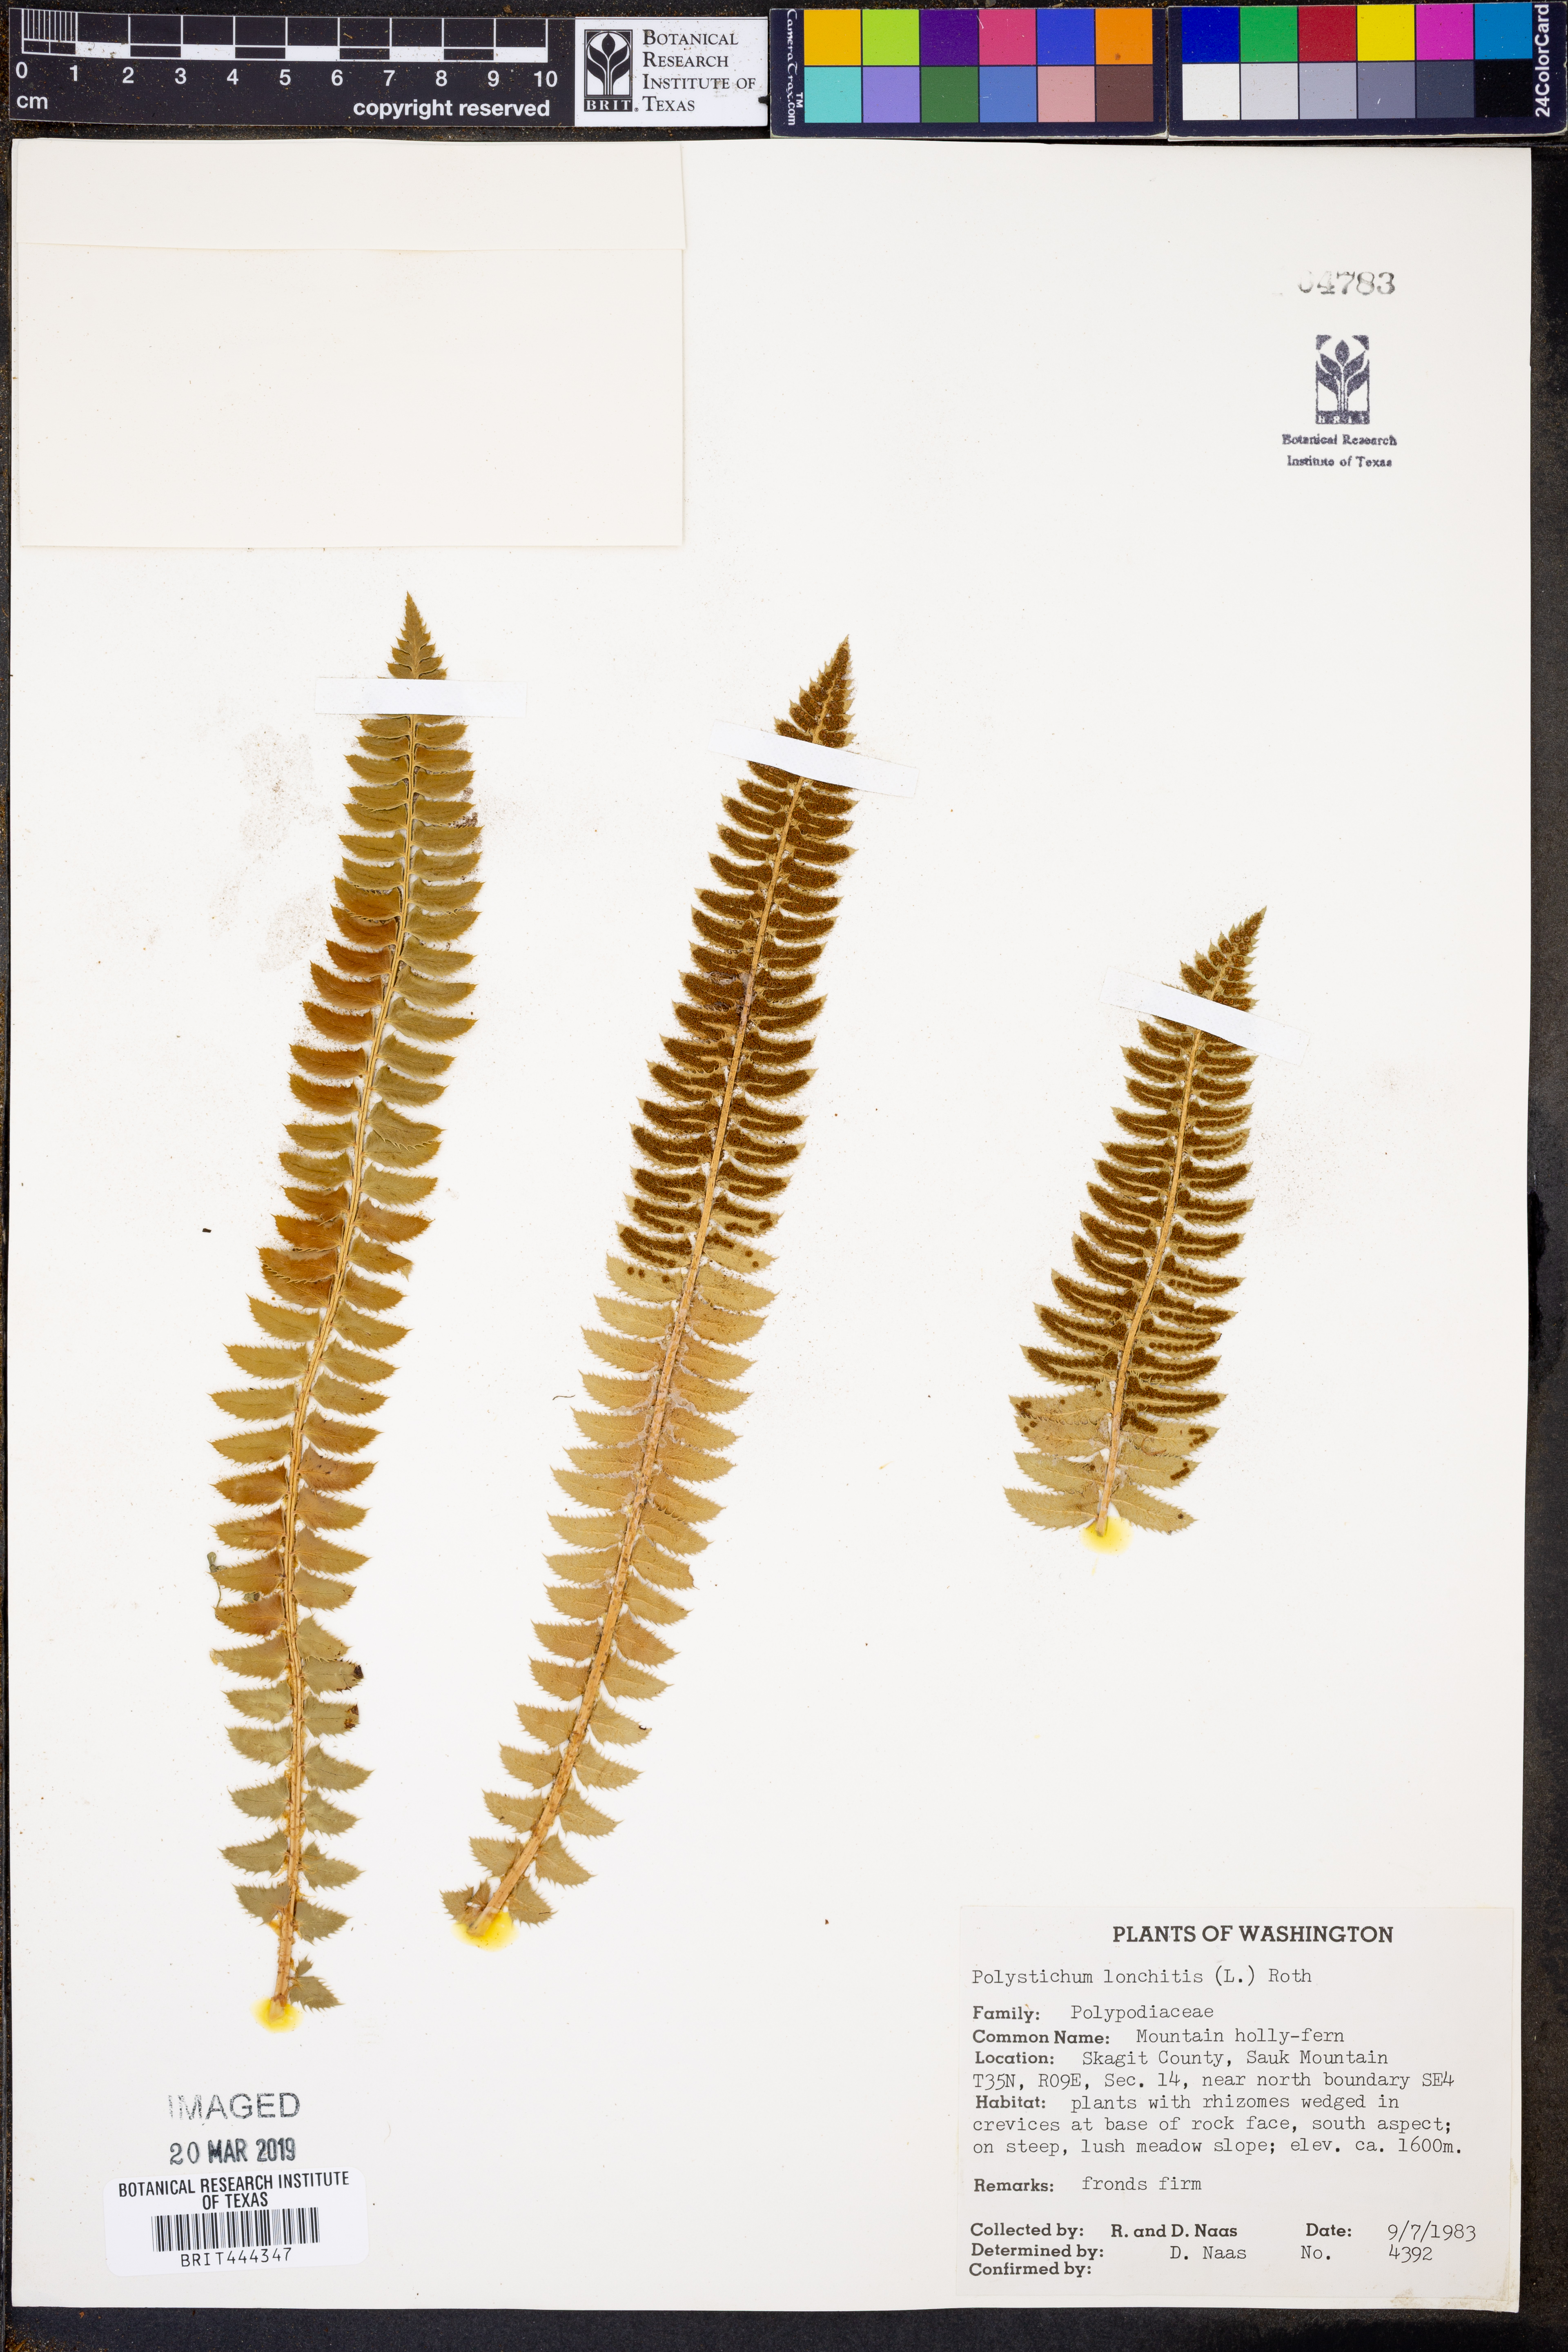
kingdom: Plantae
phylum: Tracheophyta
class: Polypodiopsida
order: Polypodiales
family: Dryopteridaceae
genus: Polystichum
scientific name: Polystichum lonchitis
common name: Holly fern
